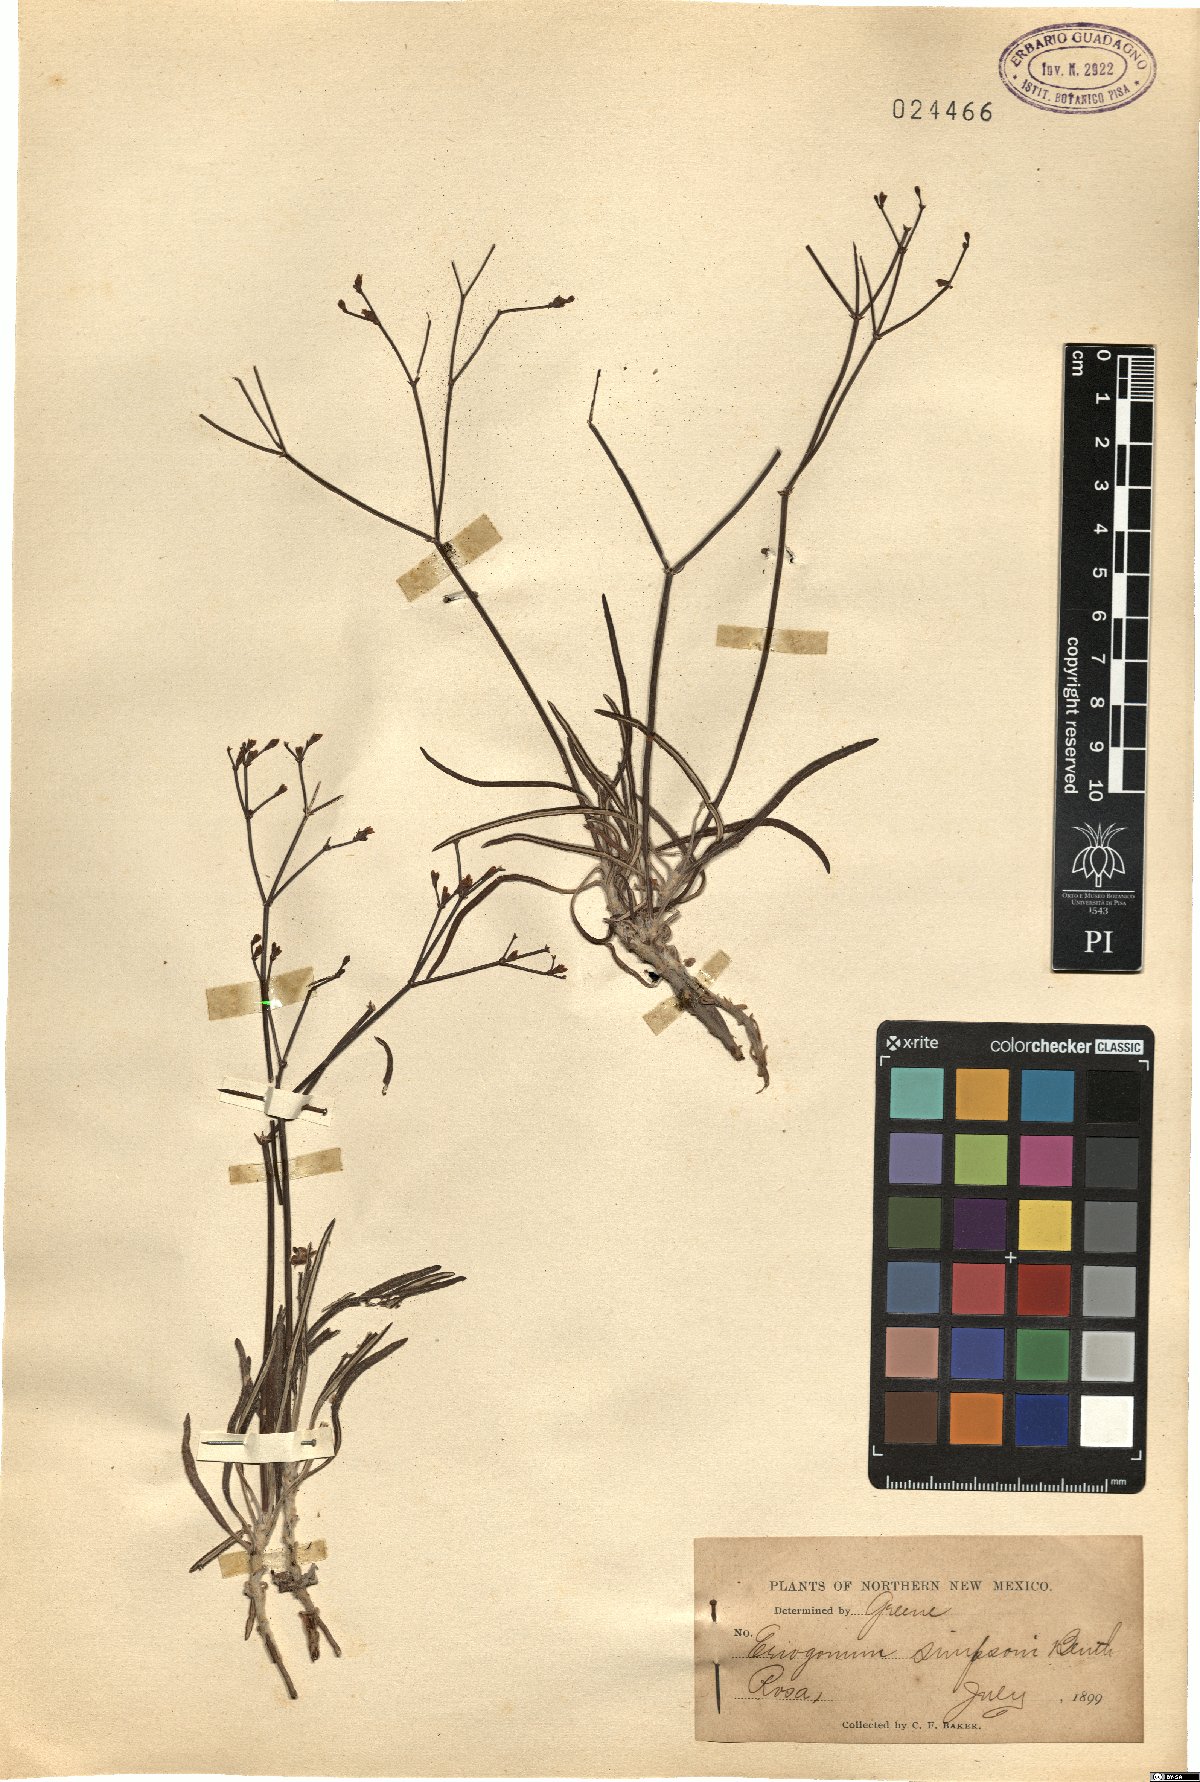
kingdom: Plantae
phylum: Tracheophyta
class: Magnoliopsida
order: Caryophyllales
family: Polygonaceae
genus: Eriogonum
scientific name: Eriogonum microtheca
